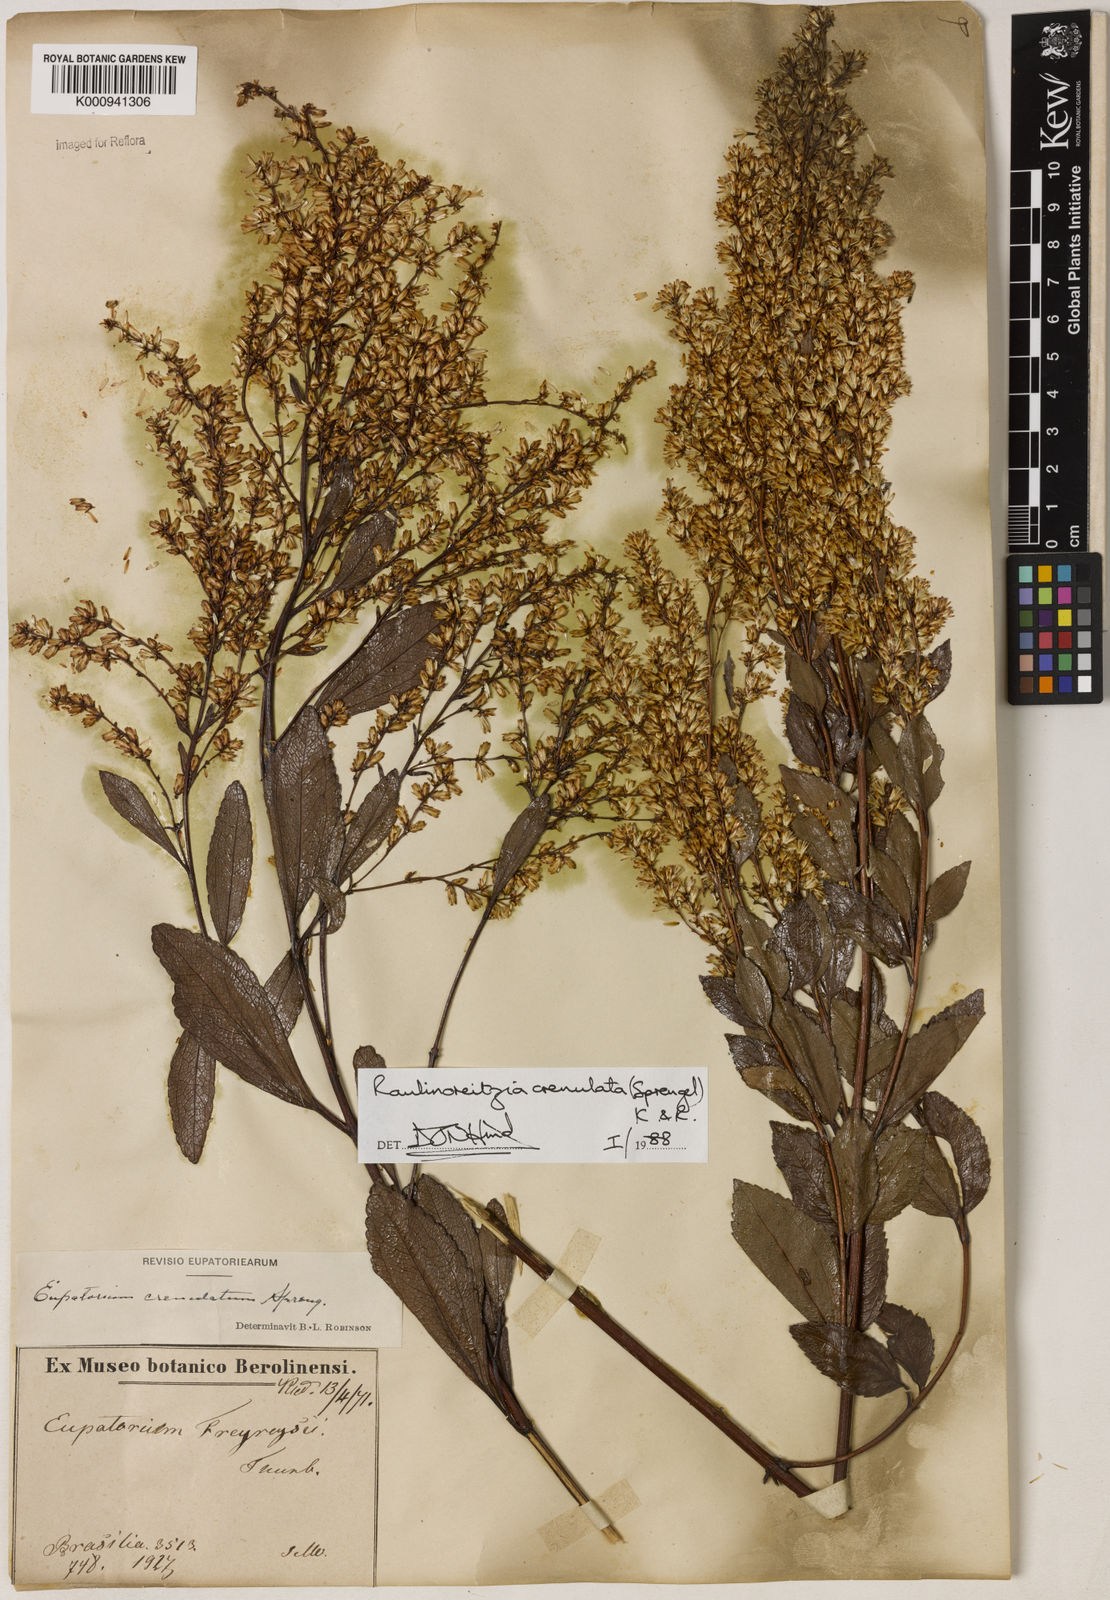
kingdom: Plantae
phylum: Tracheophyta
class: Magnoliopsida
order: Asterales
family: Asteraceae
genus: Raulinoreitzia
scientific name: Raulinoreitzia crenulata
